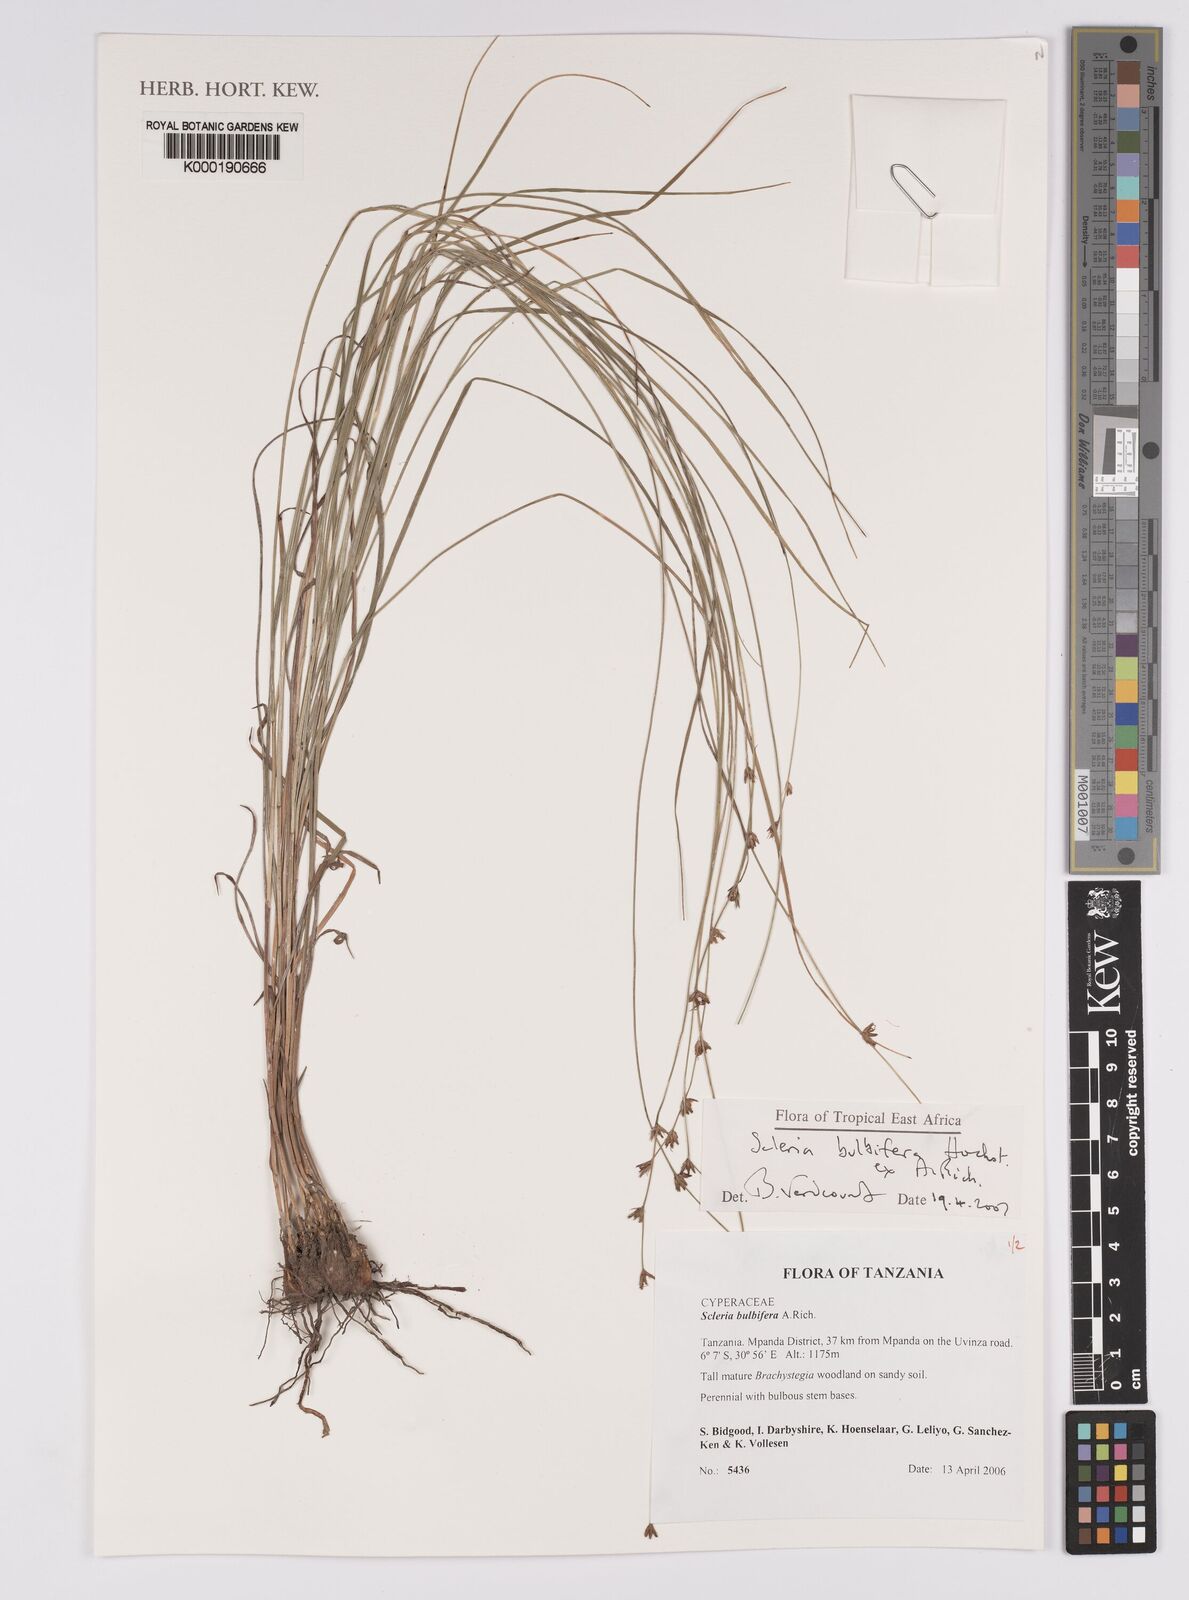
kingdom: Plantae
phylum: Tracheophyta
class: Liliopsida
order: Poales
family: Cyperaceae
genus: Scleria
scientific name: Scleria bulbifera
